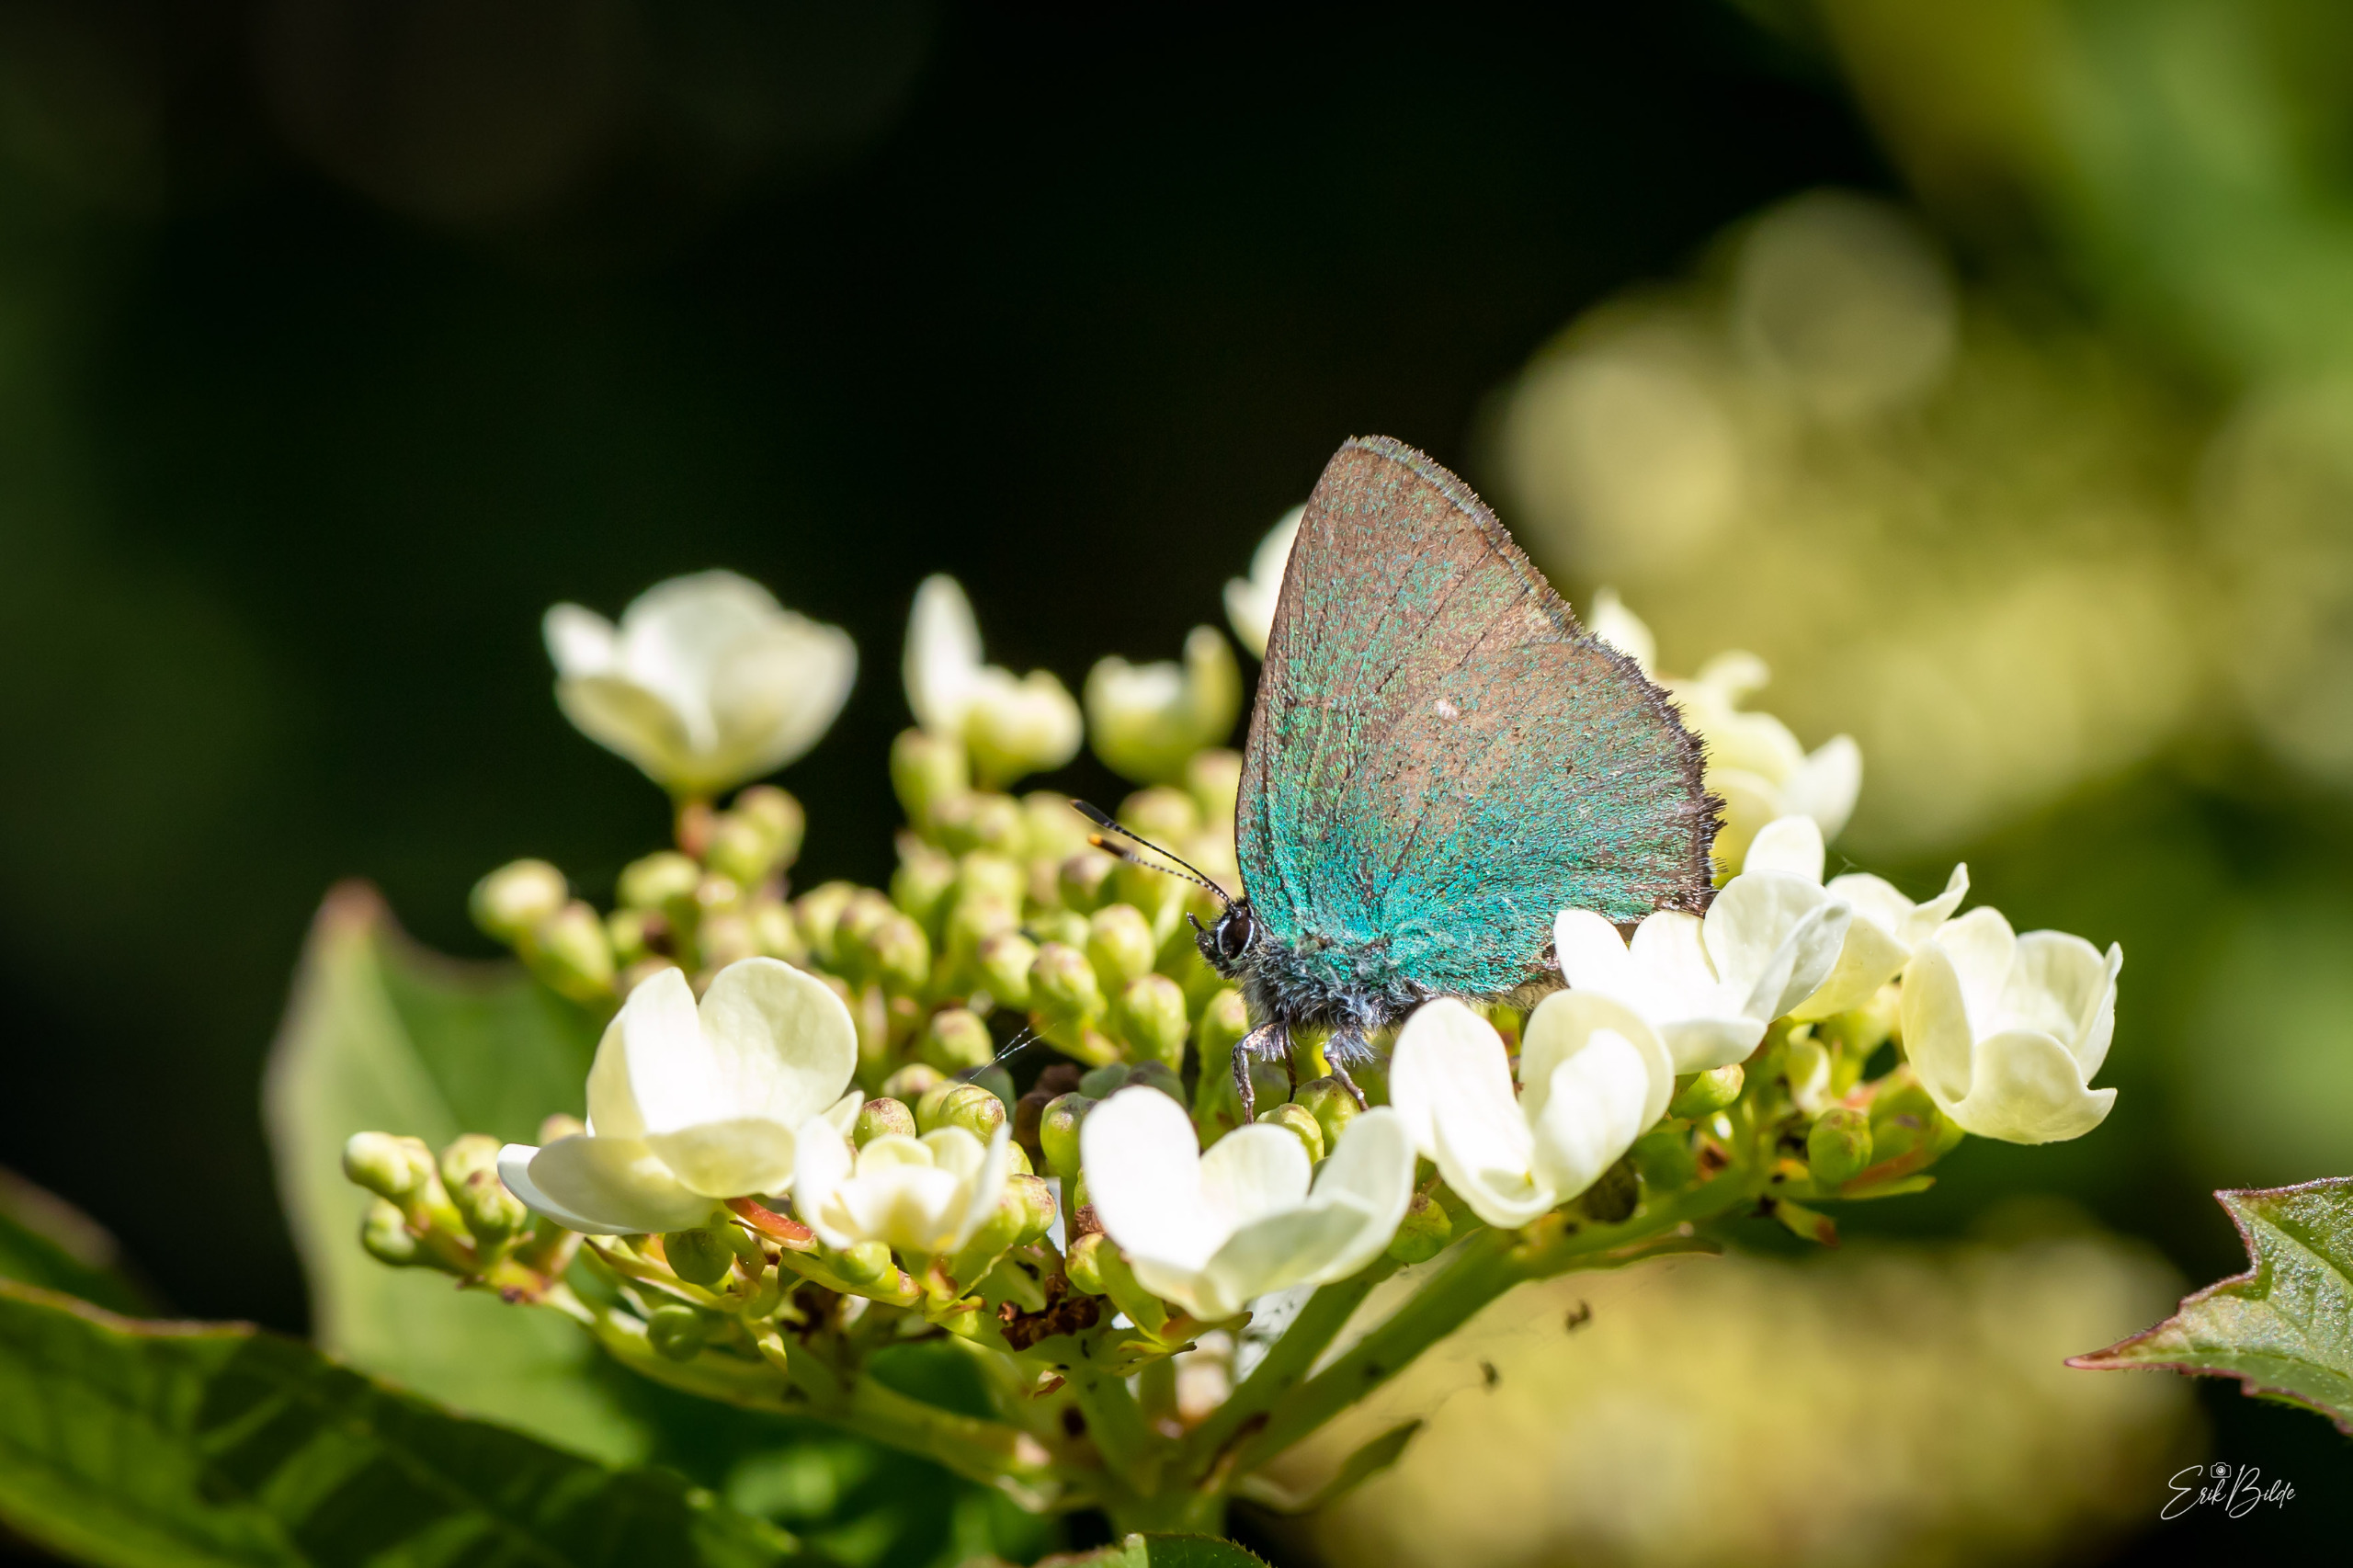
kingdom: Animalia
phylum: Arthropoda
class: Insecta
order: Lepidoptera
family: Lycaenidae
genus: Callophrys
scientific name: Callophrys rubi
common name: Grøn busksommerfugl
